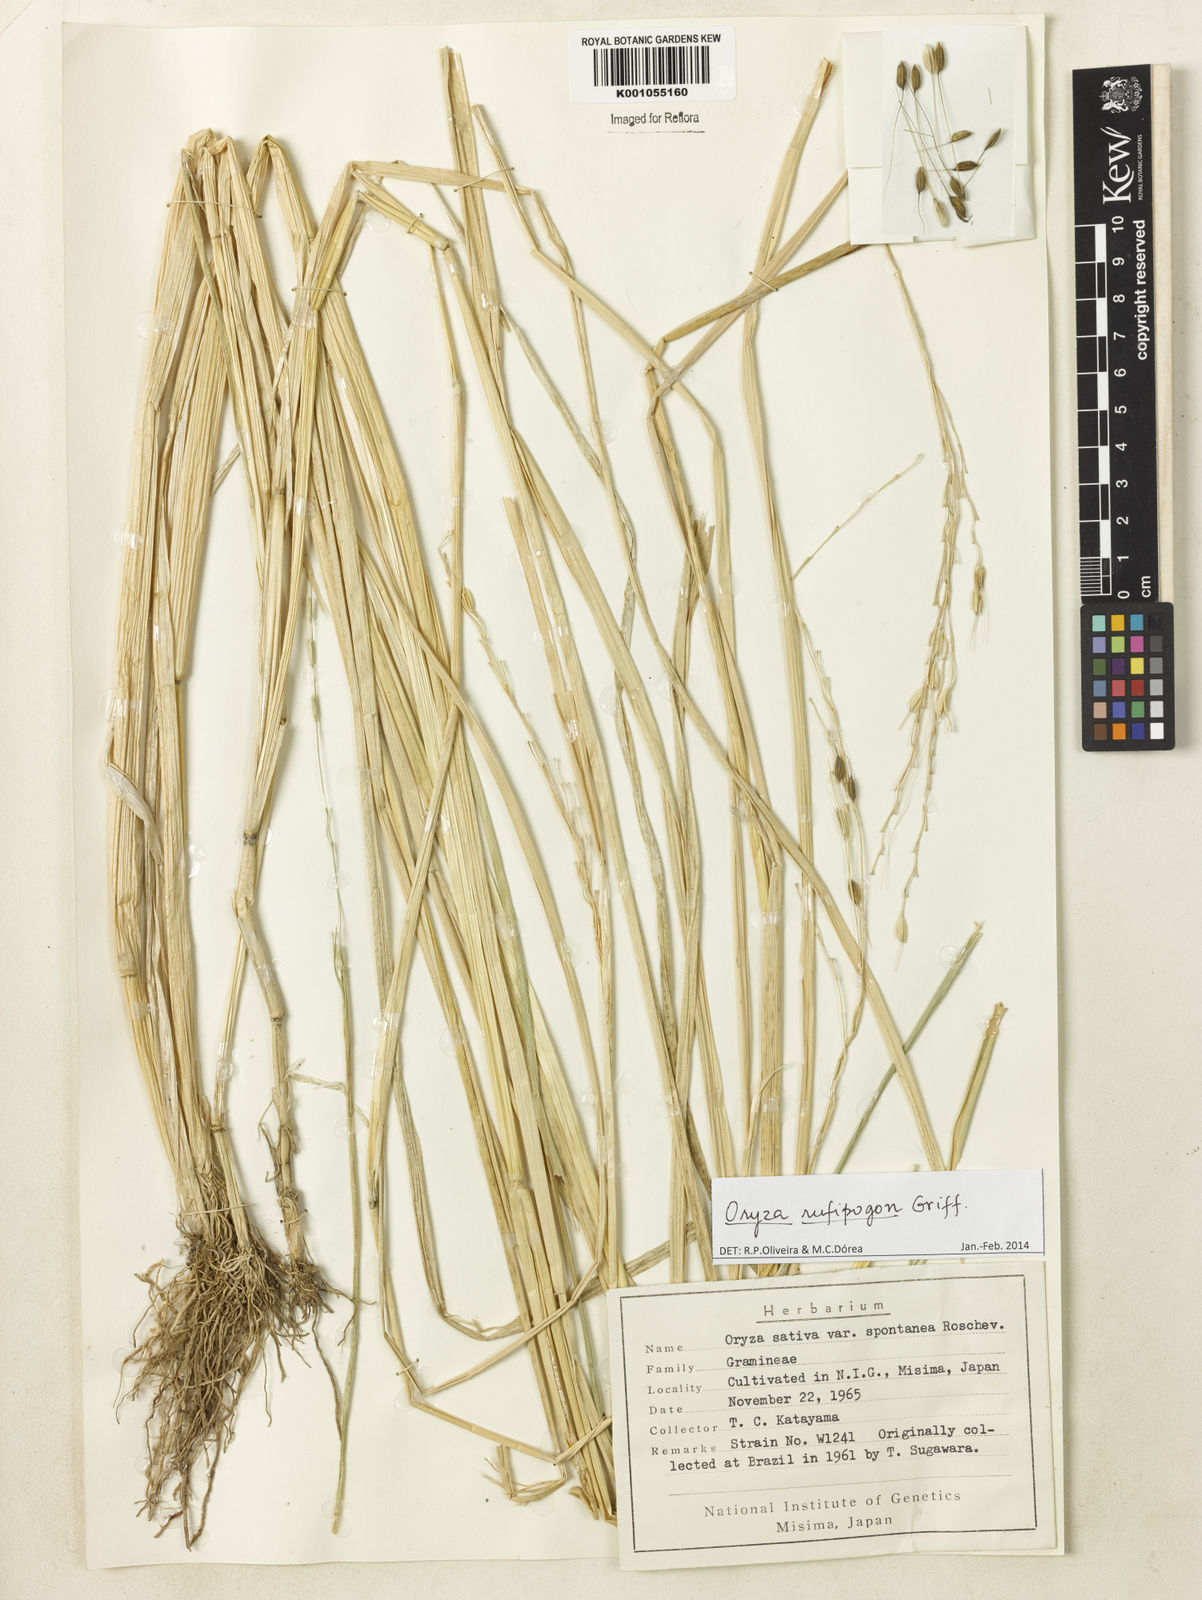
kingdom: Plantae
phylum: Tracheophyta
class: Liliopsida
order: Poales
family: Poaceae
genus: Oryza
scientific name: Oryza rufipogon
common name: Red rice
